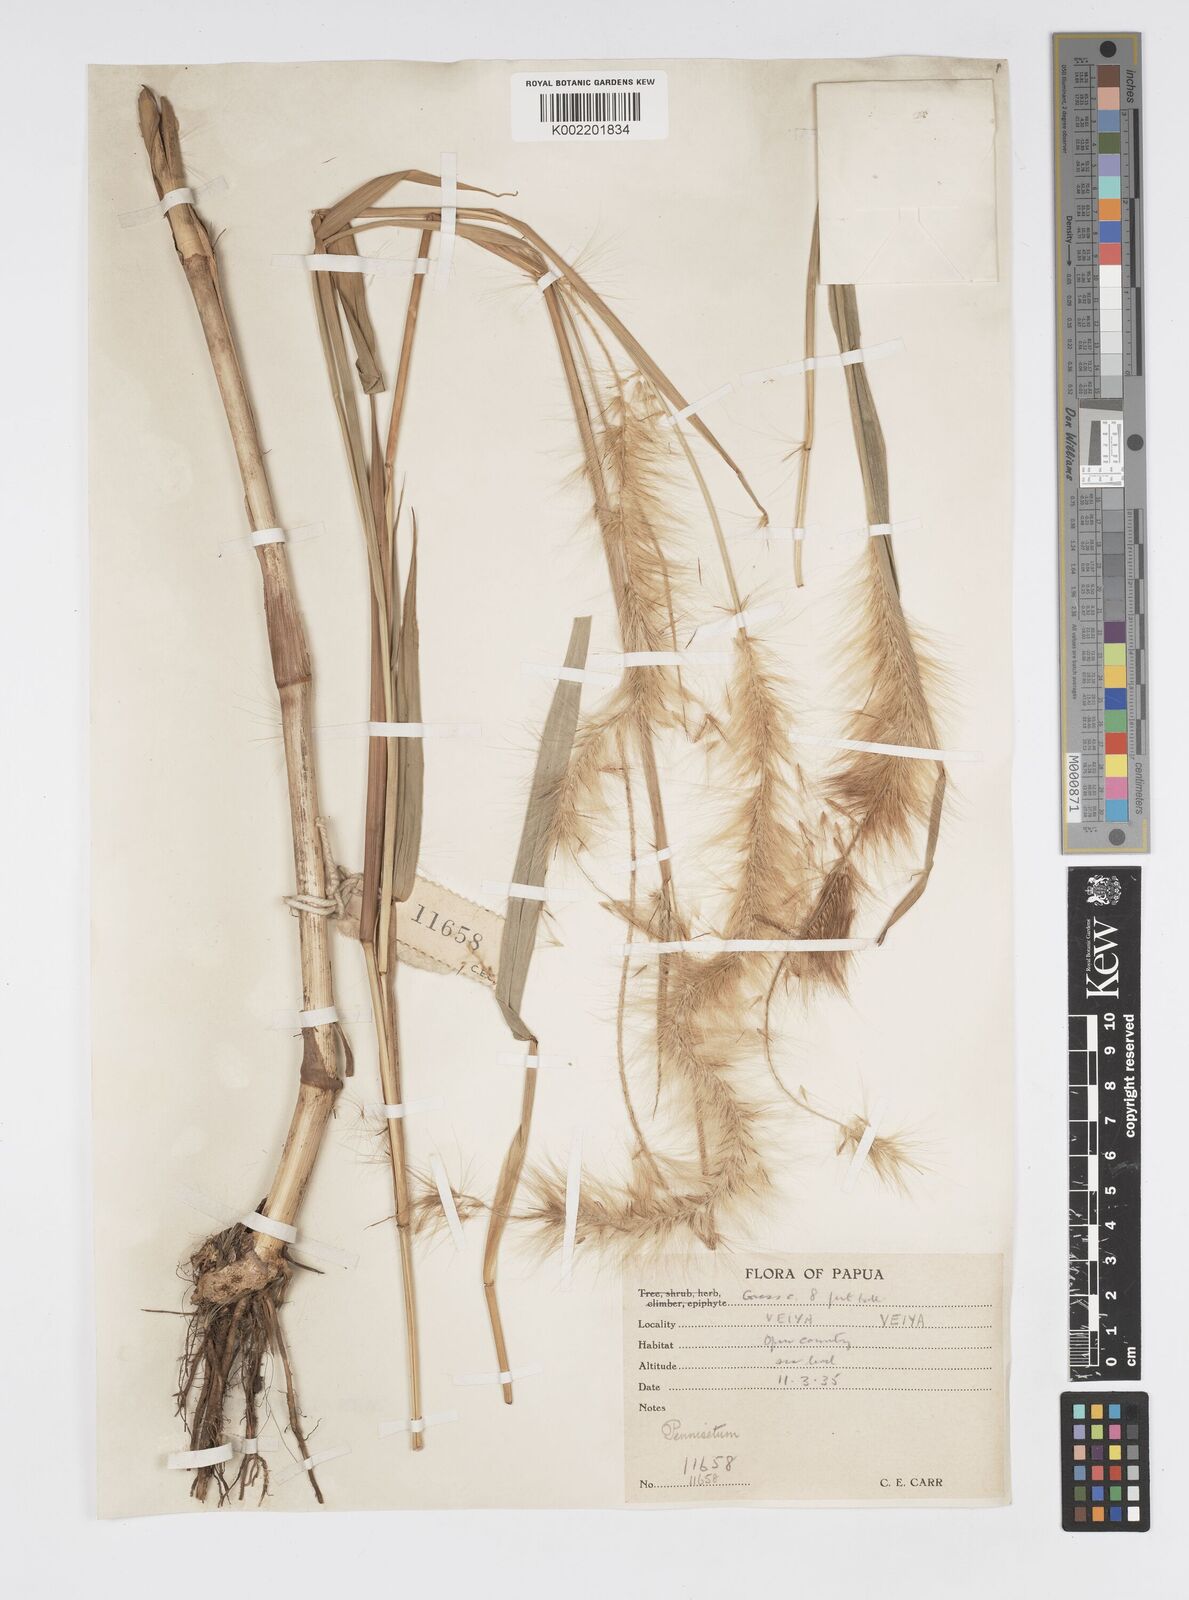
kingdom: Plantae
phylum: Tracheophyta
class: Liliopsida
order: Poales
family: Poaceae
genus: Cenchrus
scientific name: Cenchrus purpureus
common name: Elephant grass
